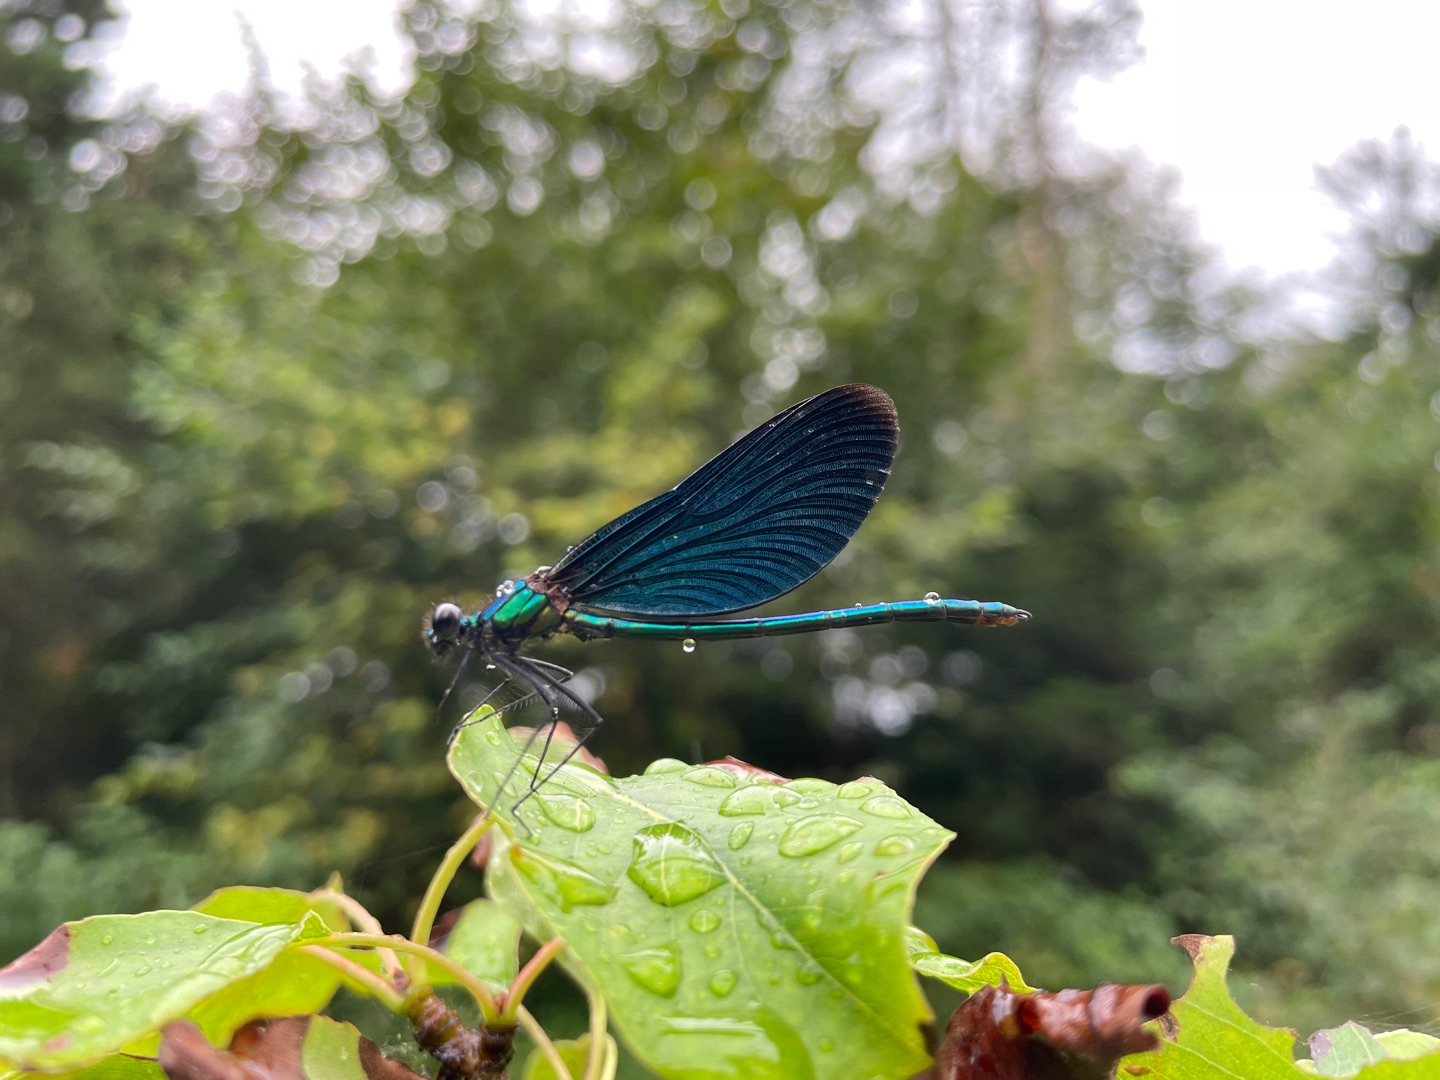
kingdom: Animalia
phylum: Arthropoda
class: Insecta
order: Odonata
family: Calopterygidae
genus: Calopteryx
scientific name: Calopteryx virgo
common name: Blåvinget pragtvandnymfe
